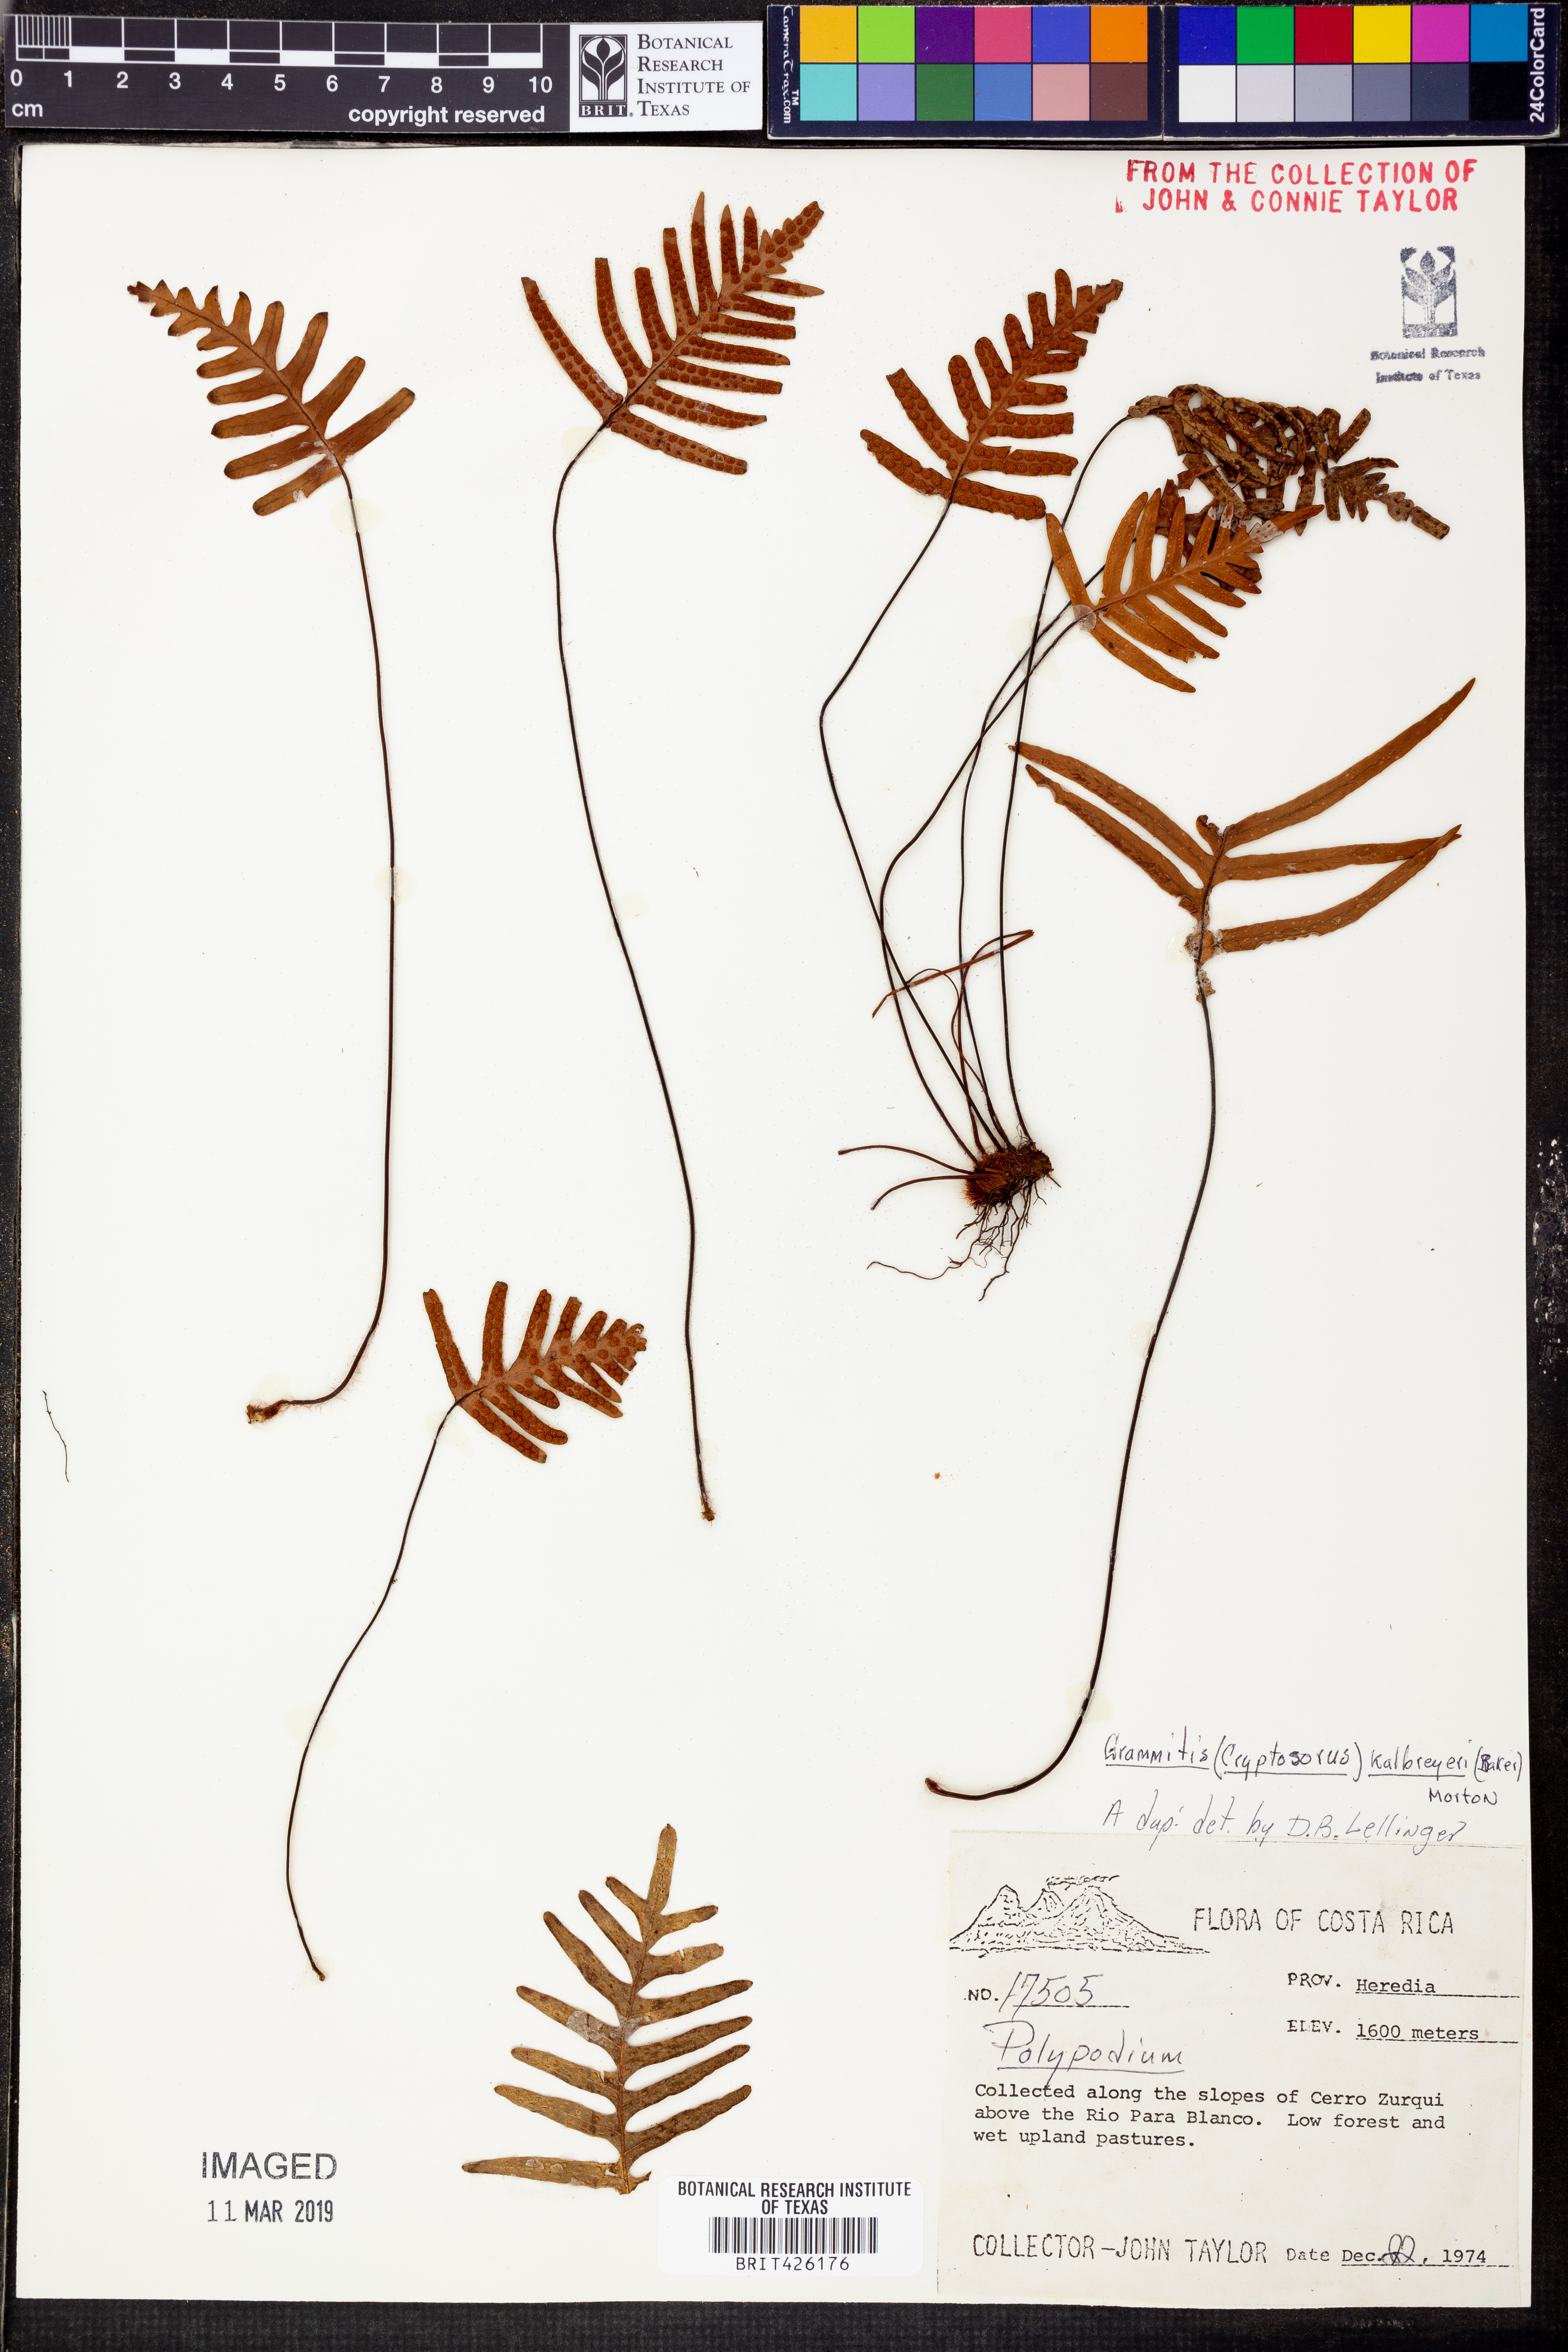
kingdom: Plantae
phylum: Tracheophyta
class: Polypodiopsida
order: Polypodiales
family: Polypodiaceae
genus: Ceradenia
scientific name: Ceradenia kalbreyeri
